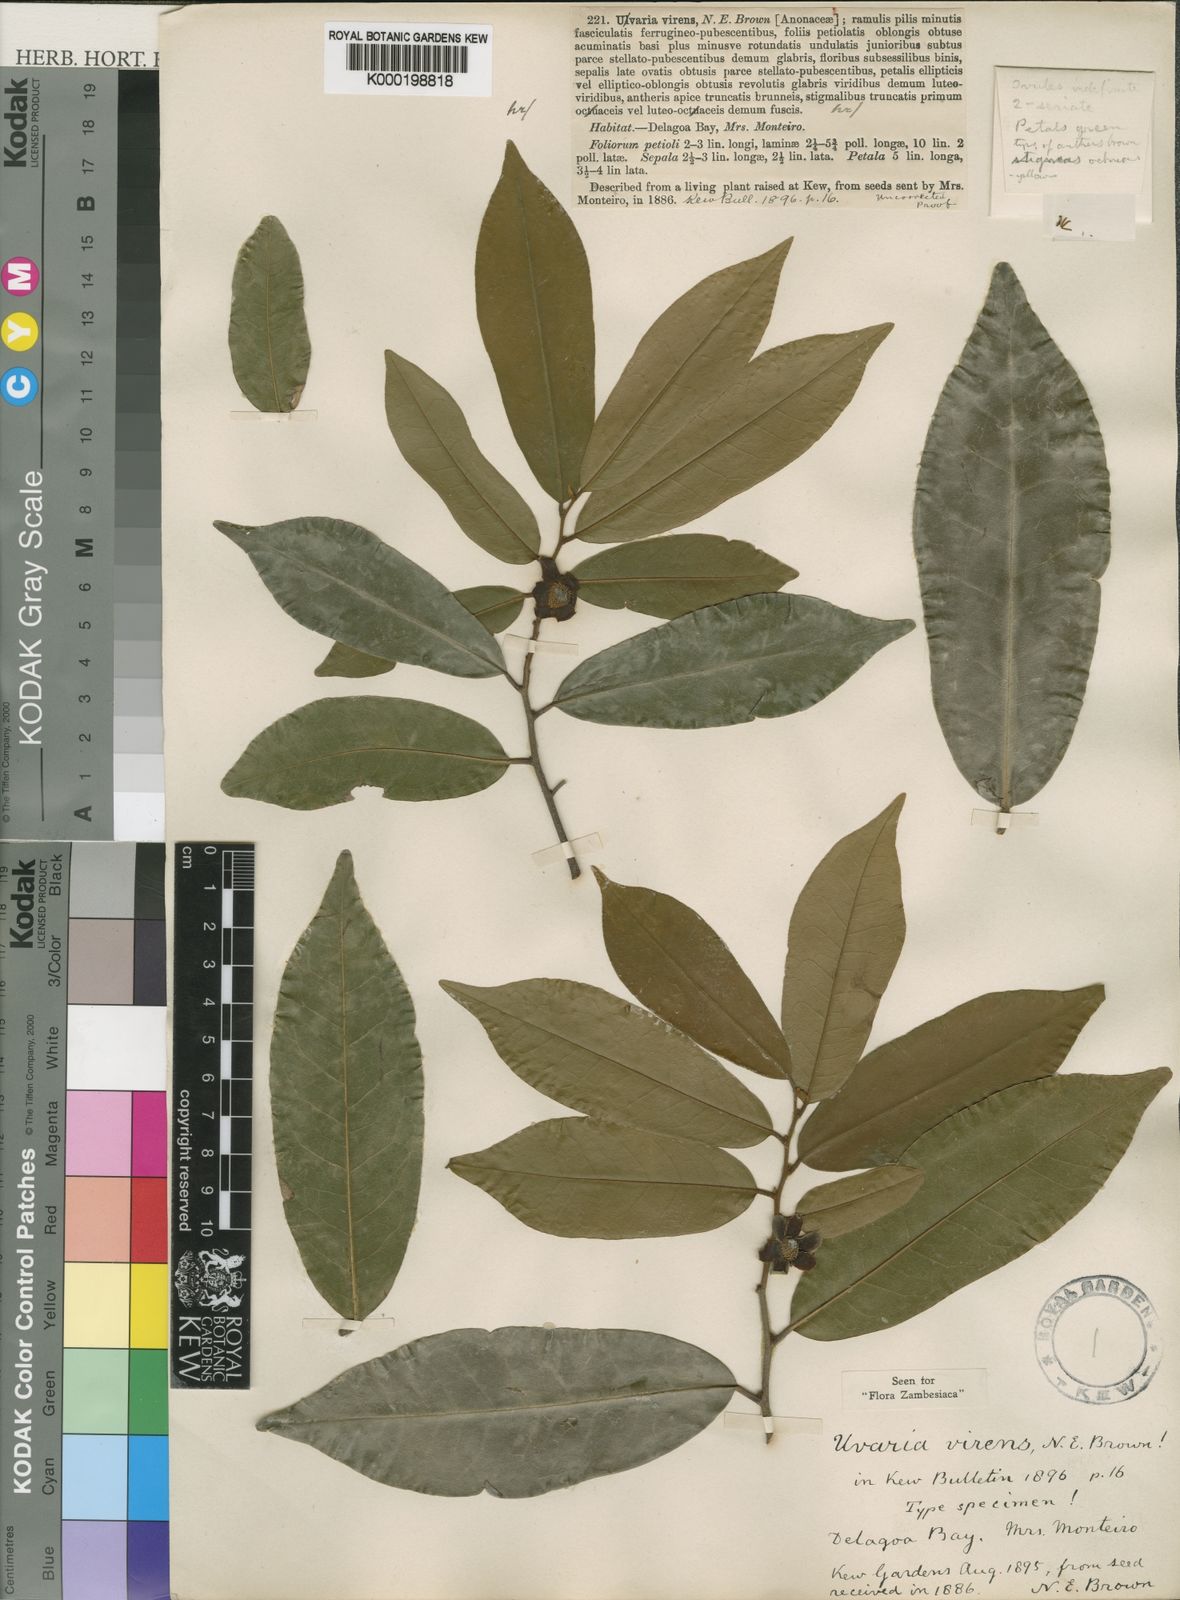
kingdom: Plantae
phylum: Tracheophyta
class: Magnoliopsida
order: Magnoliales
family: Annonaceae
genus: Uvaria
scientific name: Uvaria lucida
